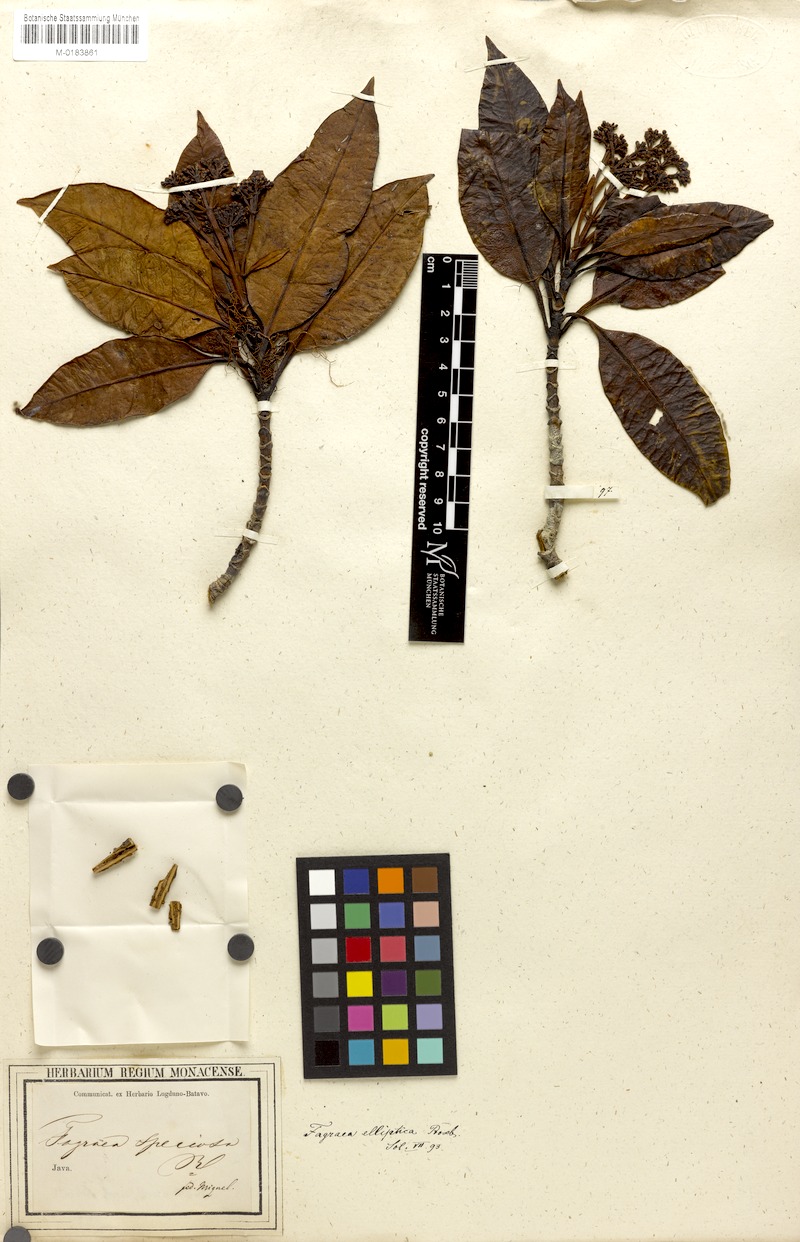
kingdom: Plantae
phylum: Tracheophyta
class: Magnoliopsida
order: Gentianales
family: Gentianaceae
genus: Picrophloeus
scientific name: Picrophloeus javanensis
